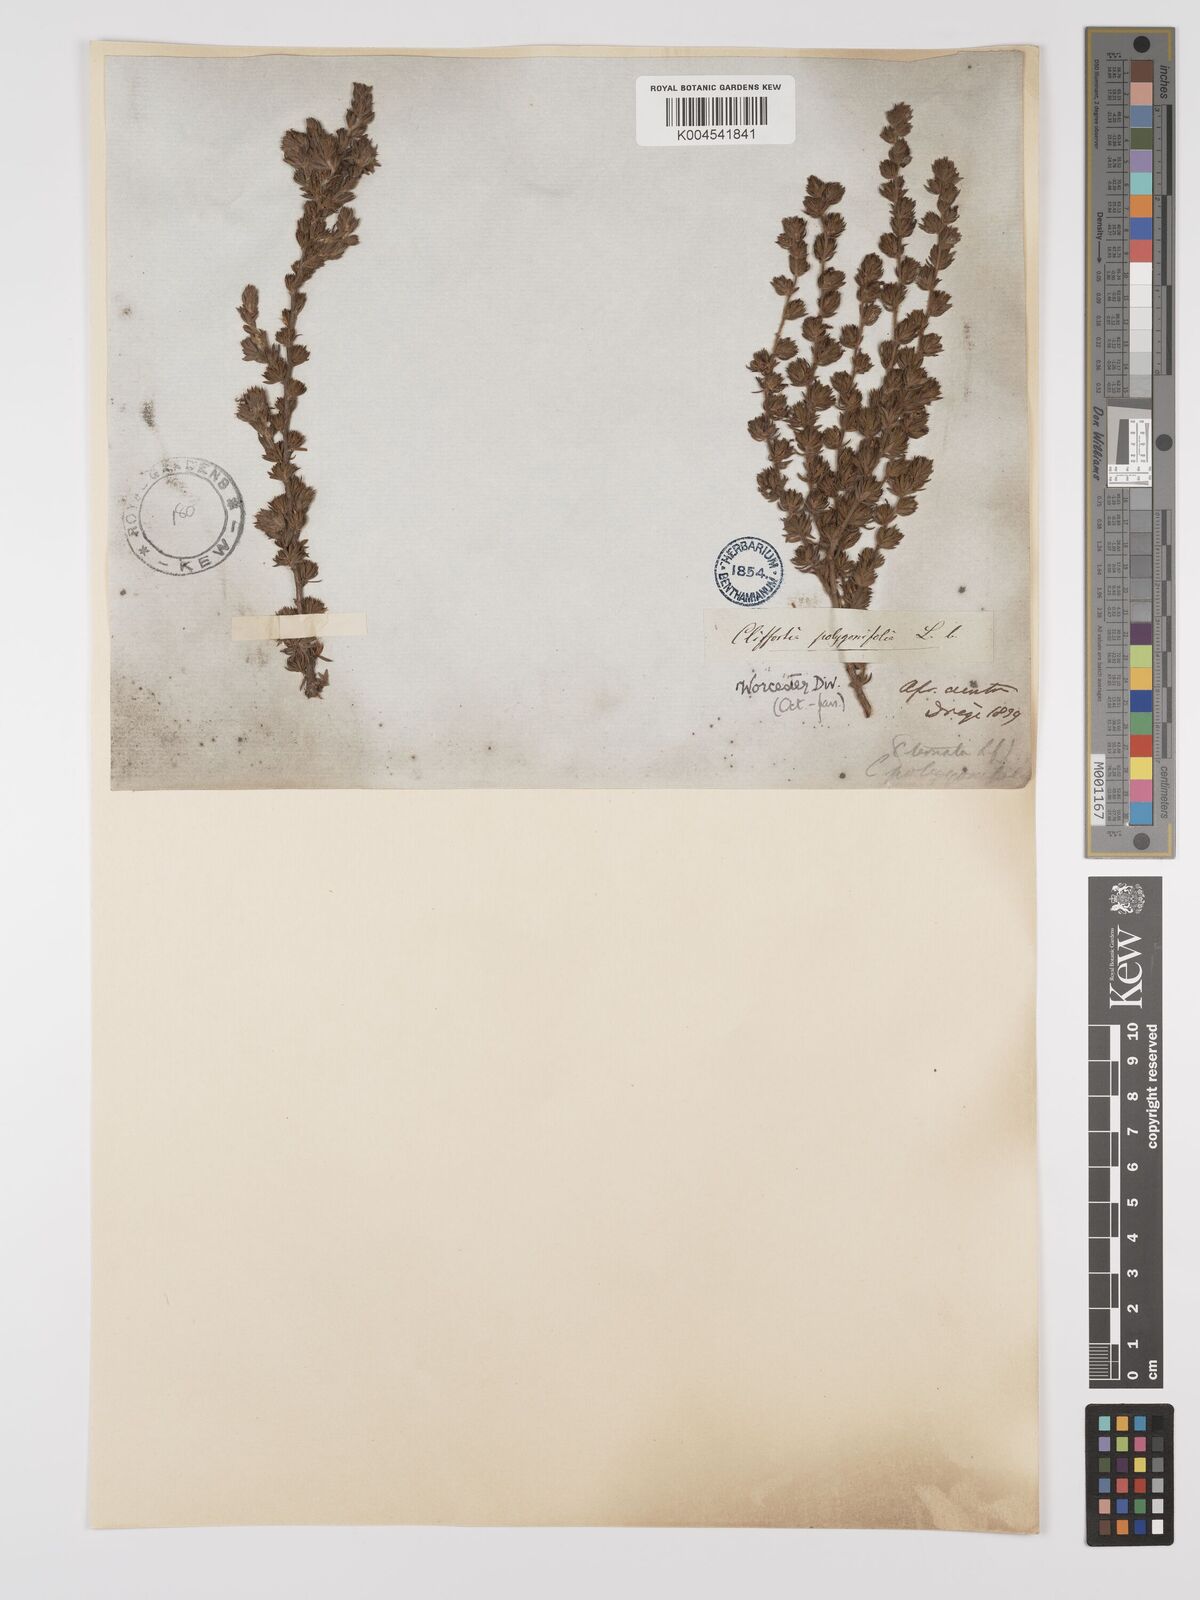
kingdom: Plantae
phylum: Tracheophyta
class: Magnoliopsida
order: Rosales
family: Rosaceae
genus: Cliffortia
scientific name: Cliffortia polygonifolia
